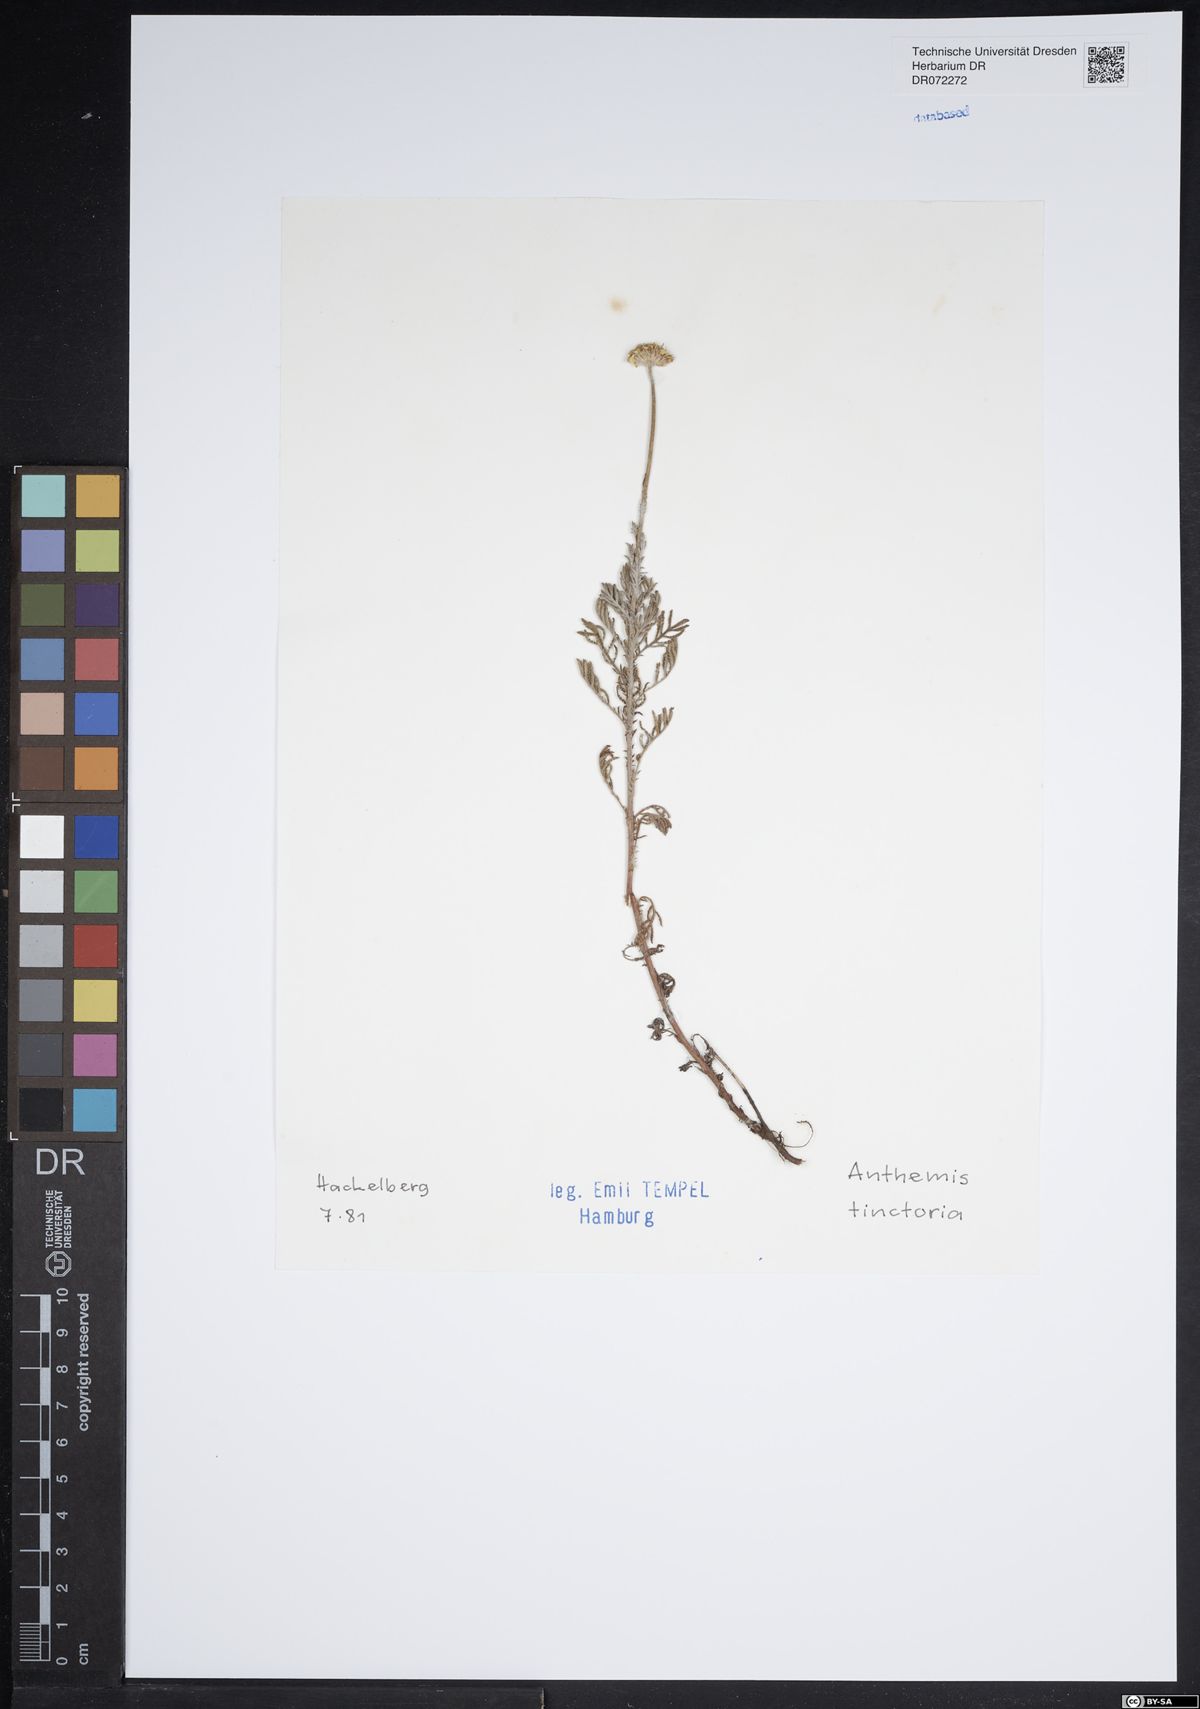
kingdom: Plantae
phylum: Tracheophyta
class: Magnoliopsida
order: Asterales
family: Asteraceae
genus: Cota
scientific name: Cota tinctoria
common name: Golden chamomile
